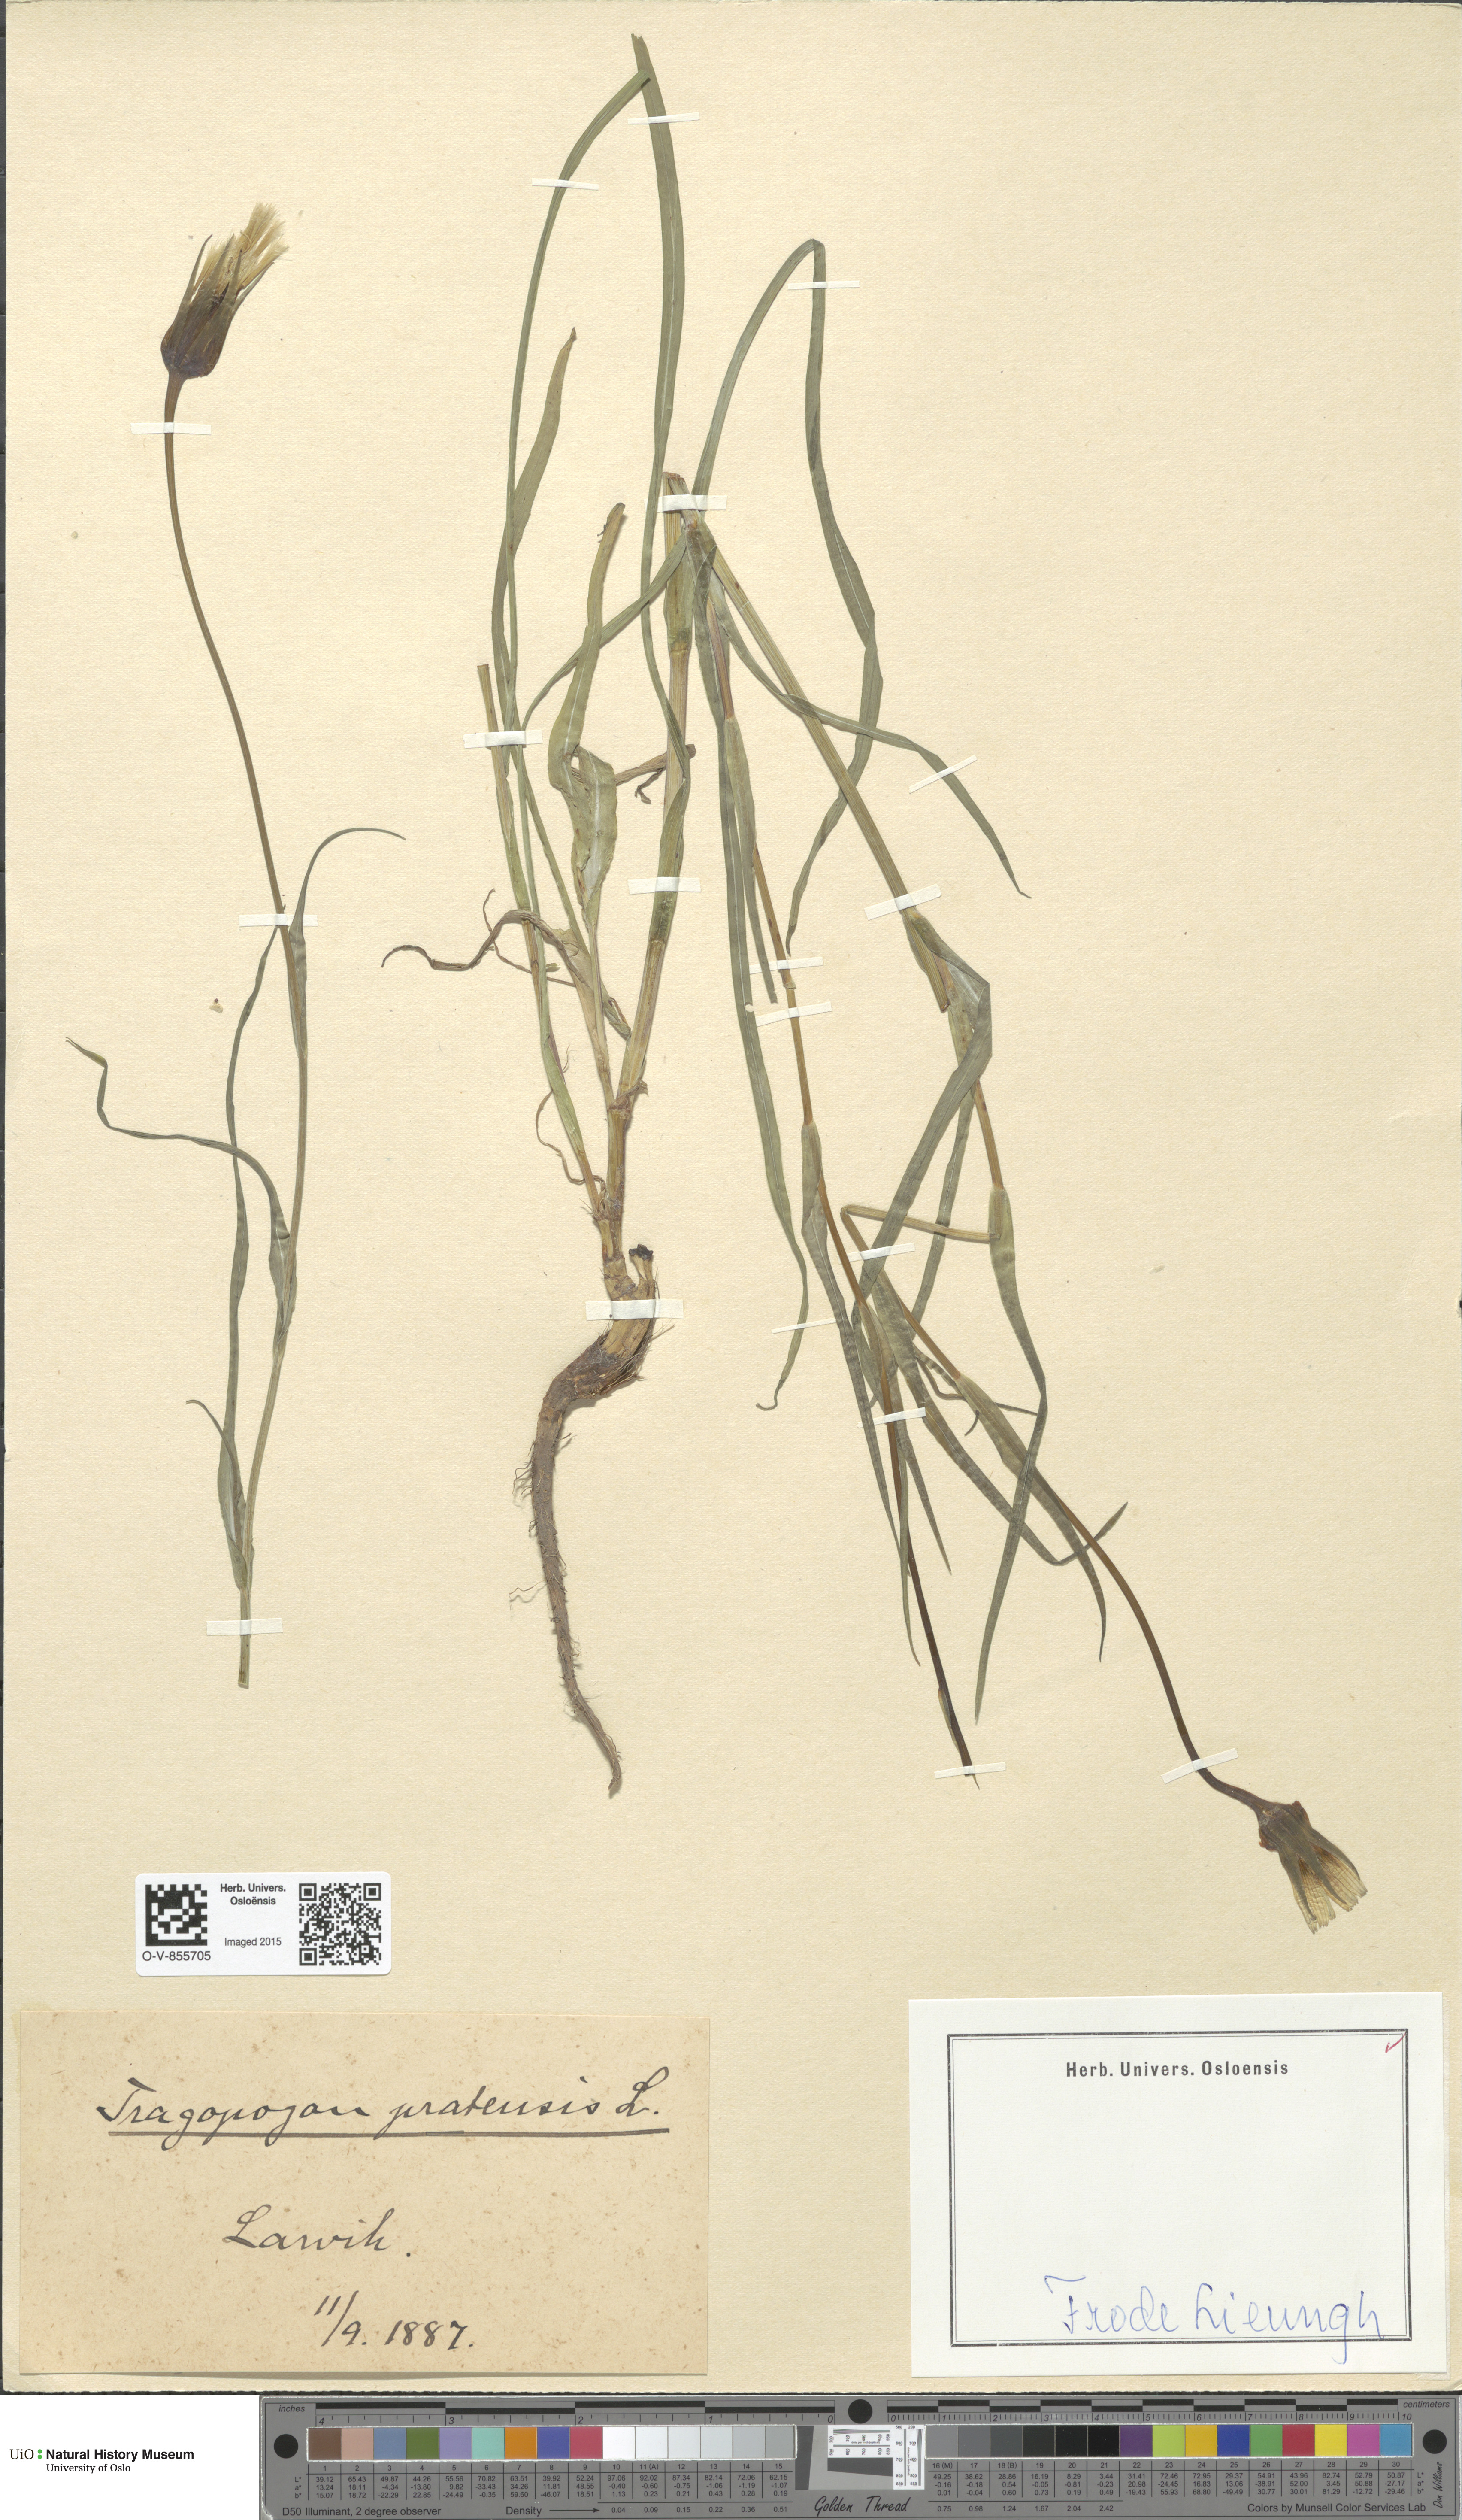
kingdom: Plantae
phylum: Tracheophyta
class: Magnoliopsida
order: Asterales
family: Asteraceae
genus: Tragopogon
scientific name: Tragopogon pratensis
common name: Goat's-beard
